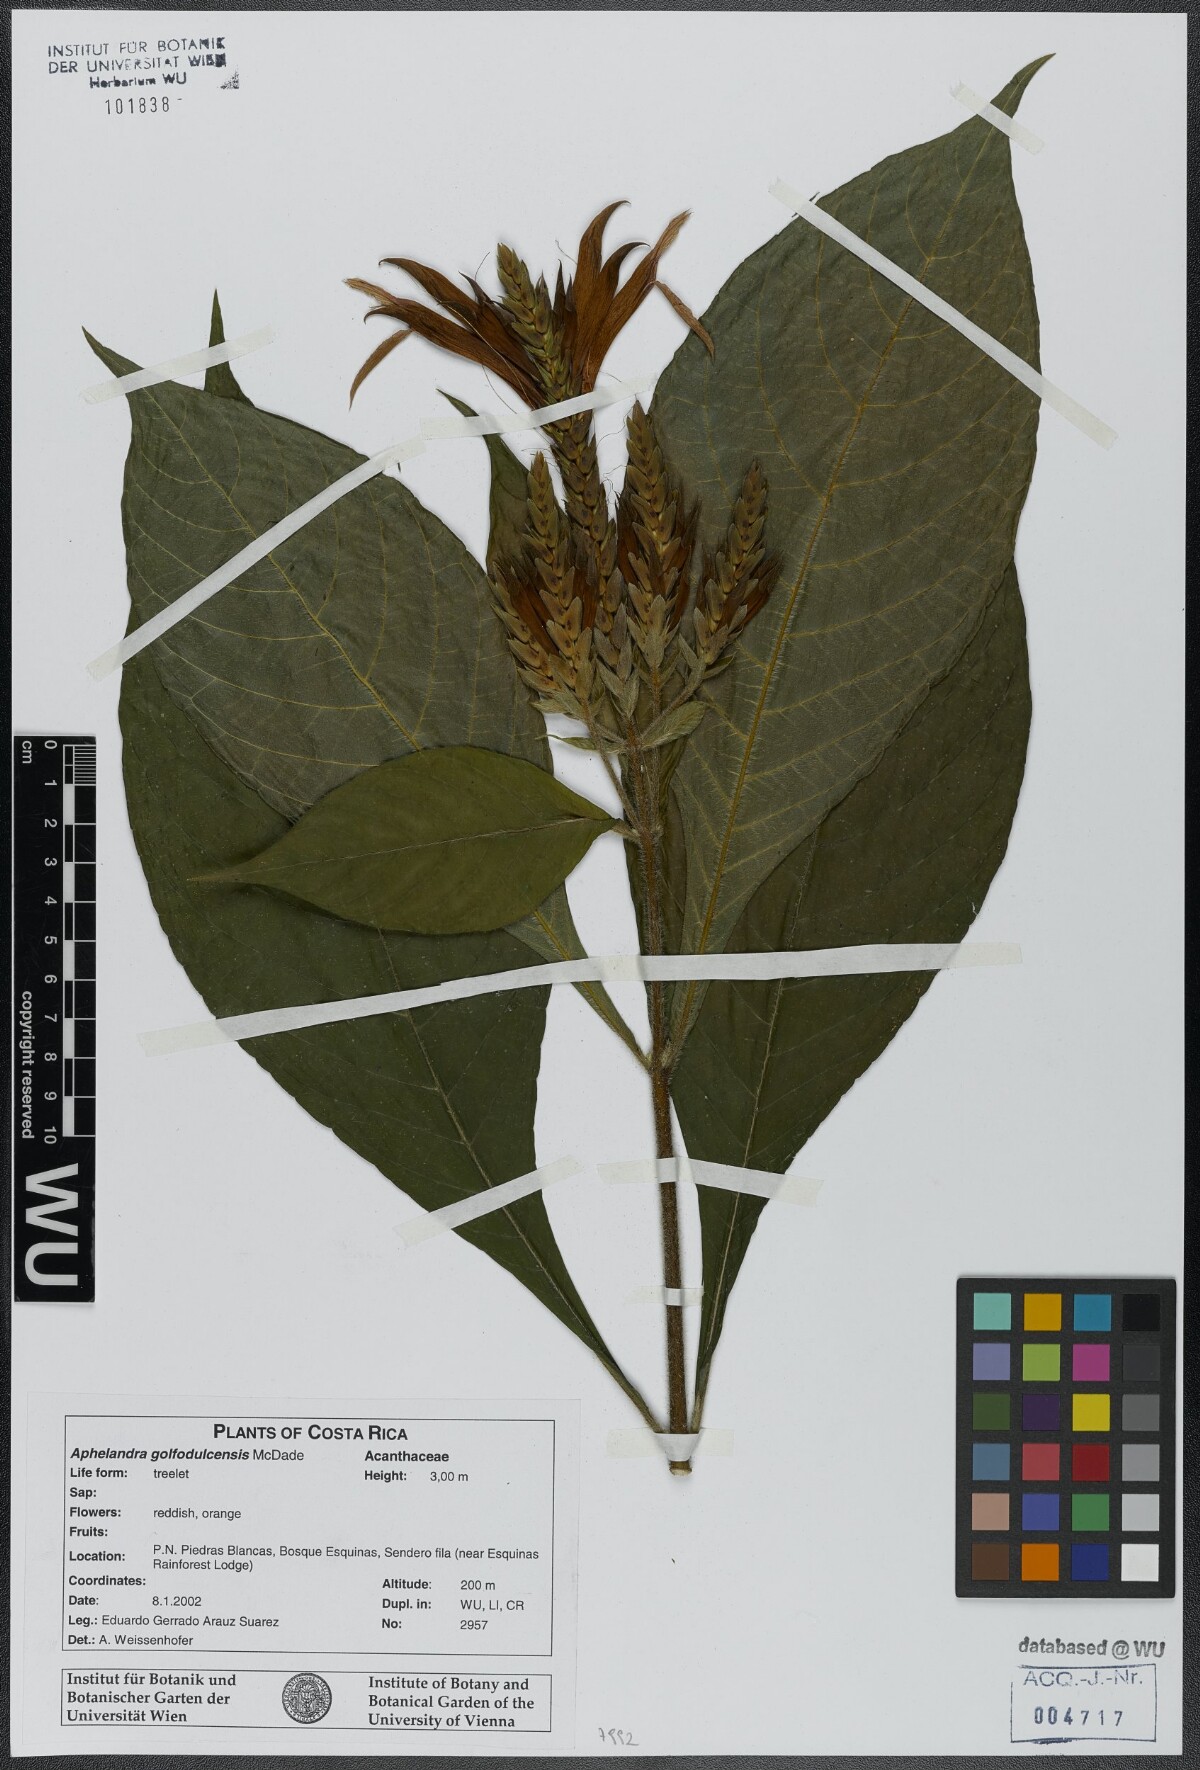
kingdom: Plantae
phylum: Tracheophyta
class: Magnoliopsida
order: Lamiales
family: Acanthaceae
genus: Aphelandra
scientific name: Aphelandra golfodulcensis
